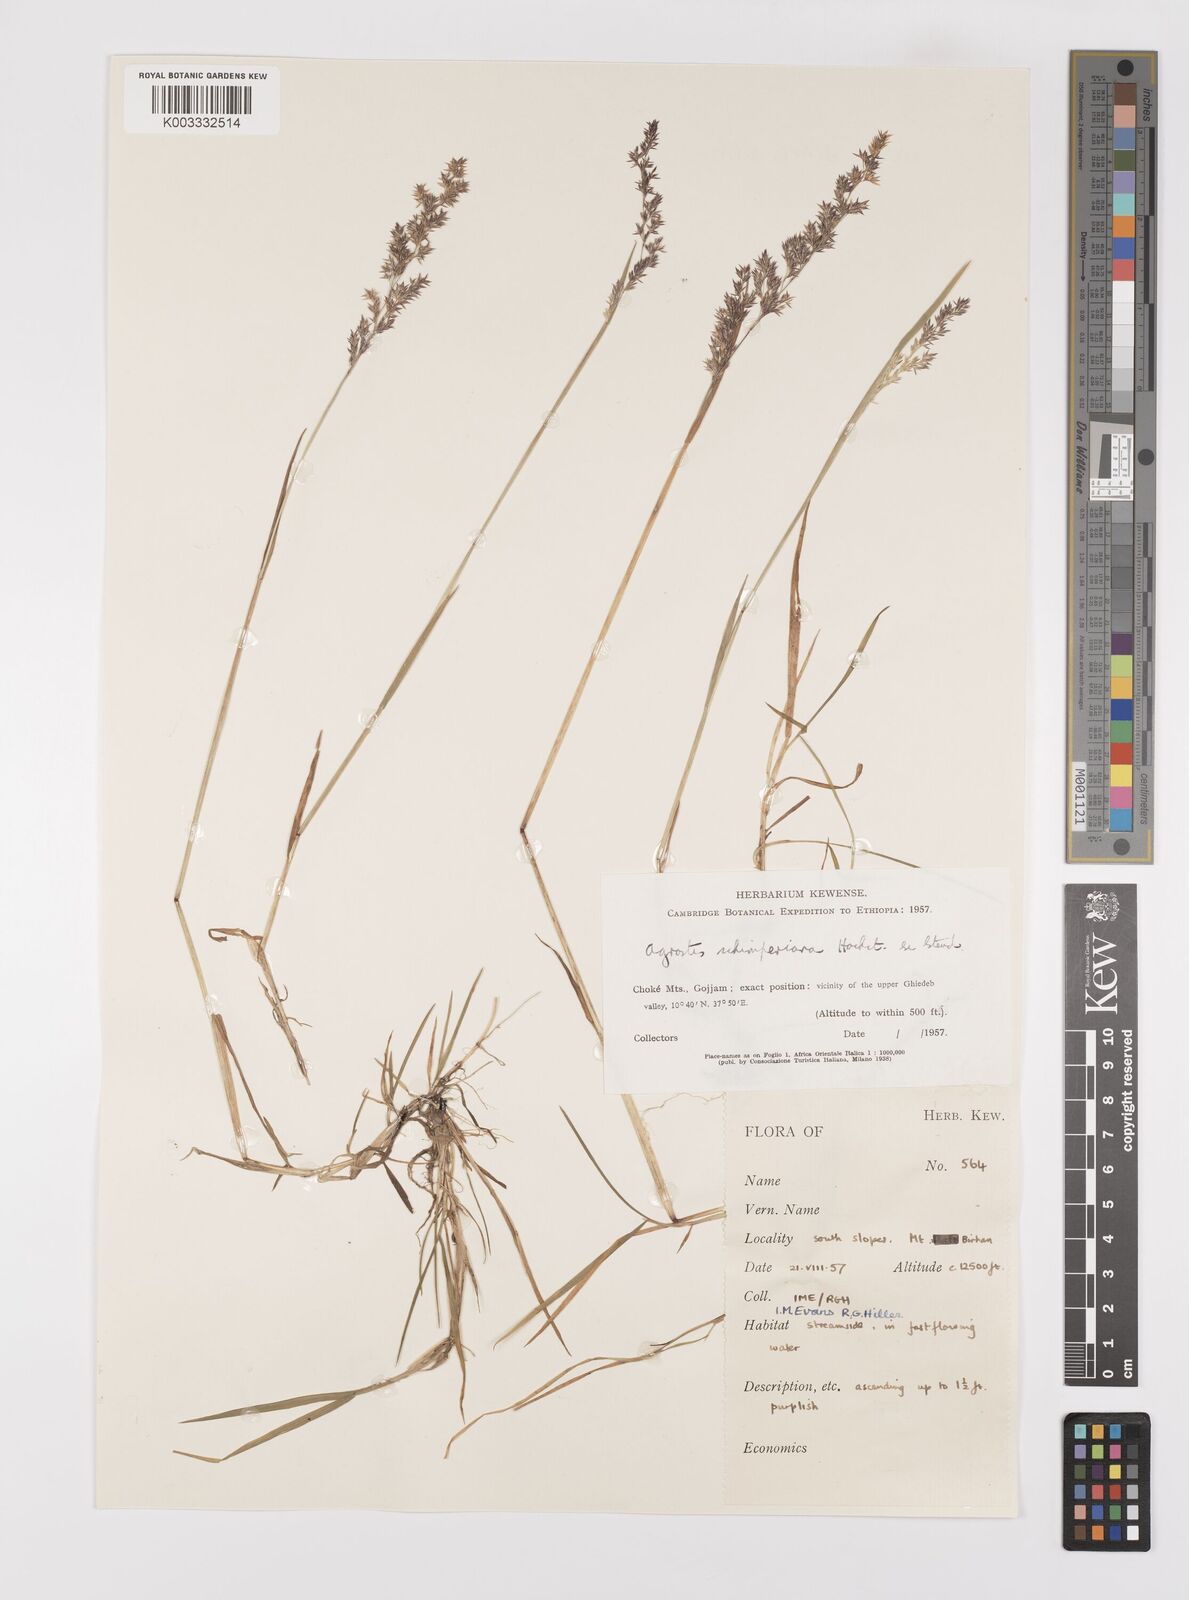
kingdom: Plantae
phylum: Tracheophyta
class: Liliopsida
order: Poales
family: Poaceae
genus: Polypogon
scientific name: Polypogon schimperianus
